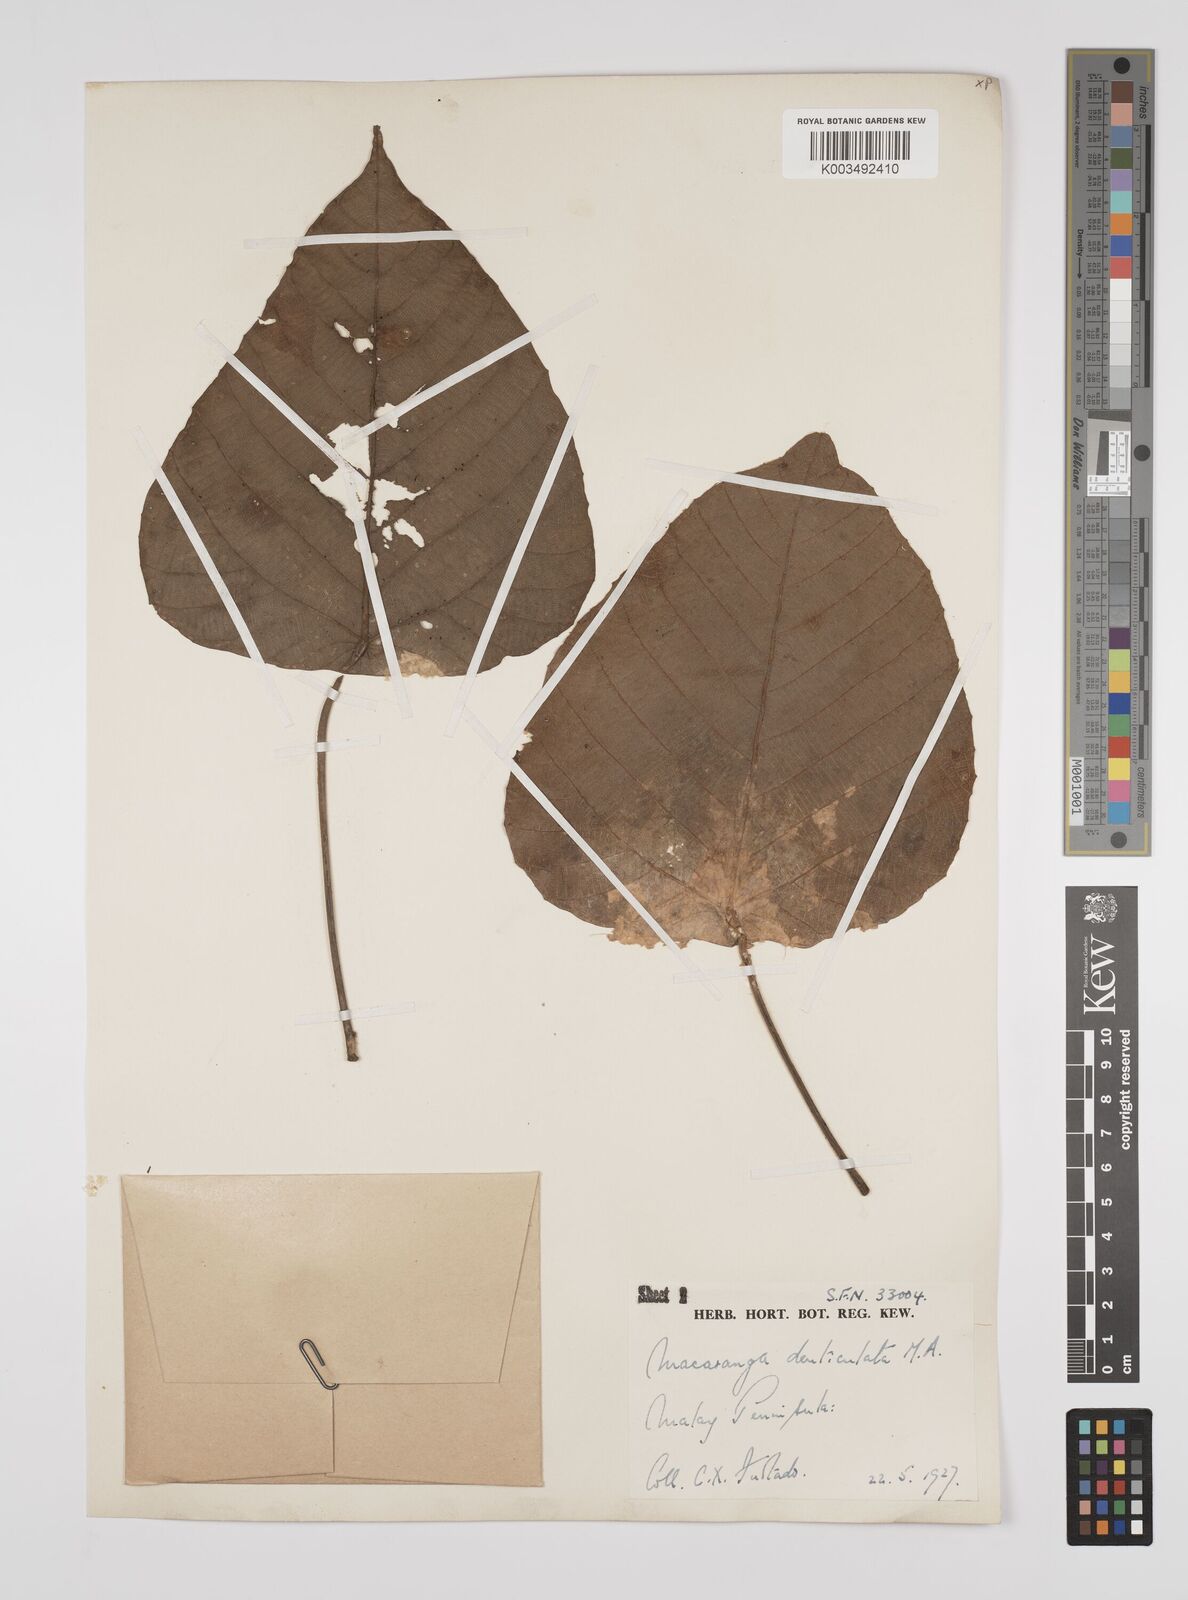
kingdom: Plantae
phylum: Tracheophyta
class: Magnoliopsida
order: Malpighiales
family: Euphorbiaceae
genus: Macaranga
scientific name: Macaranga denticulata
